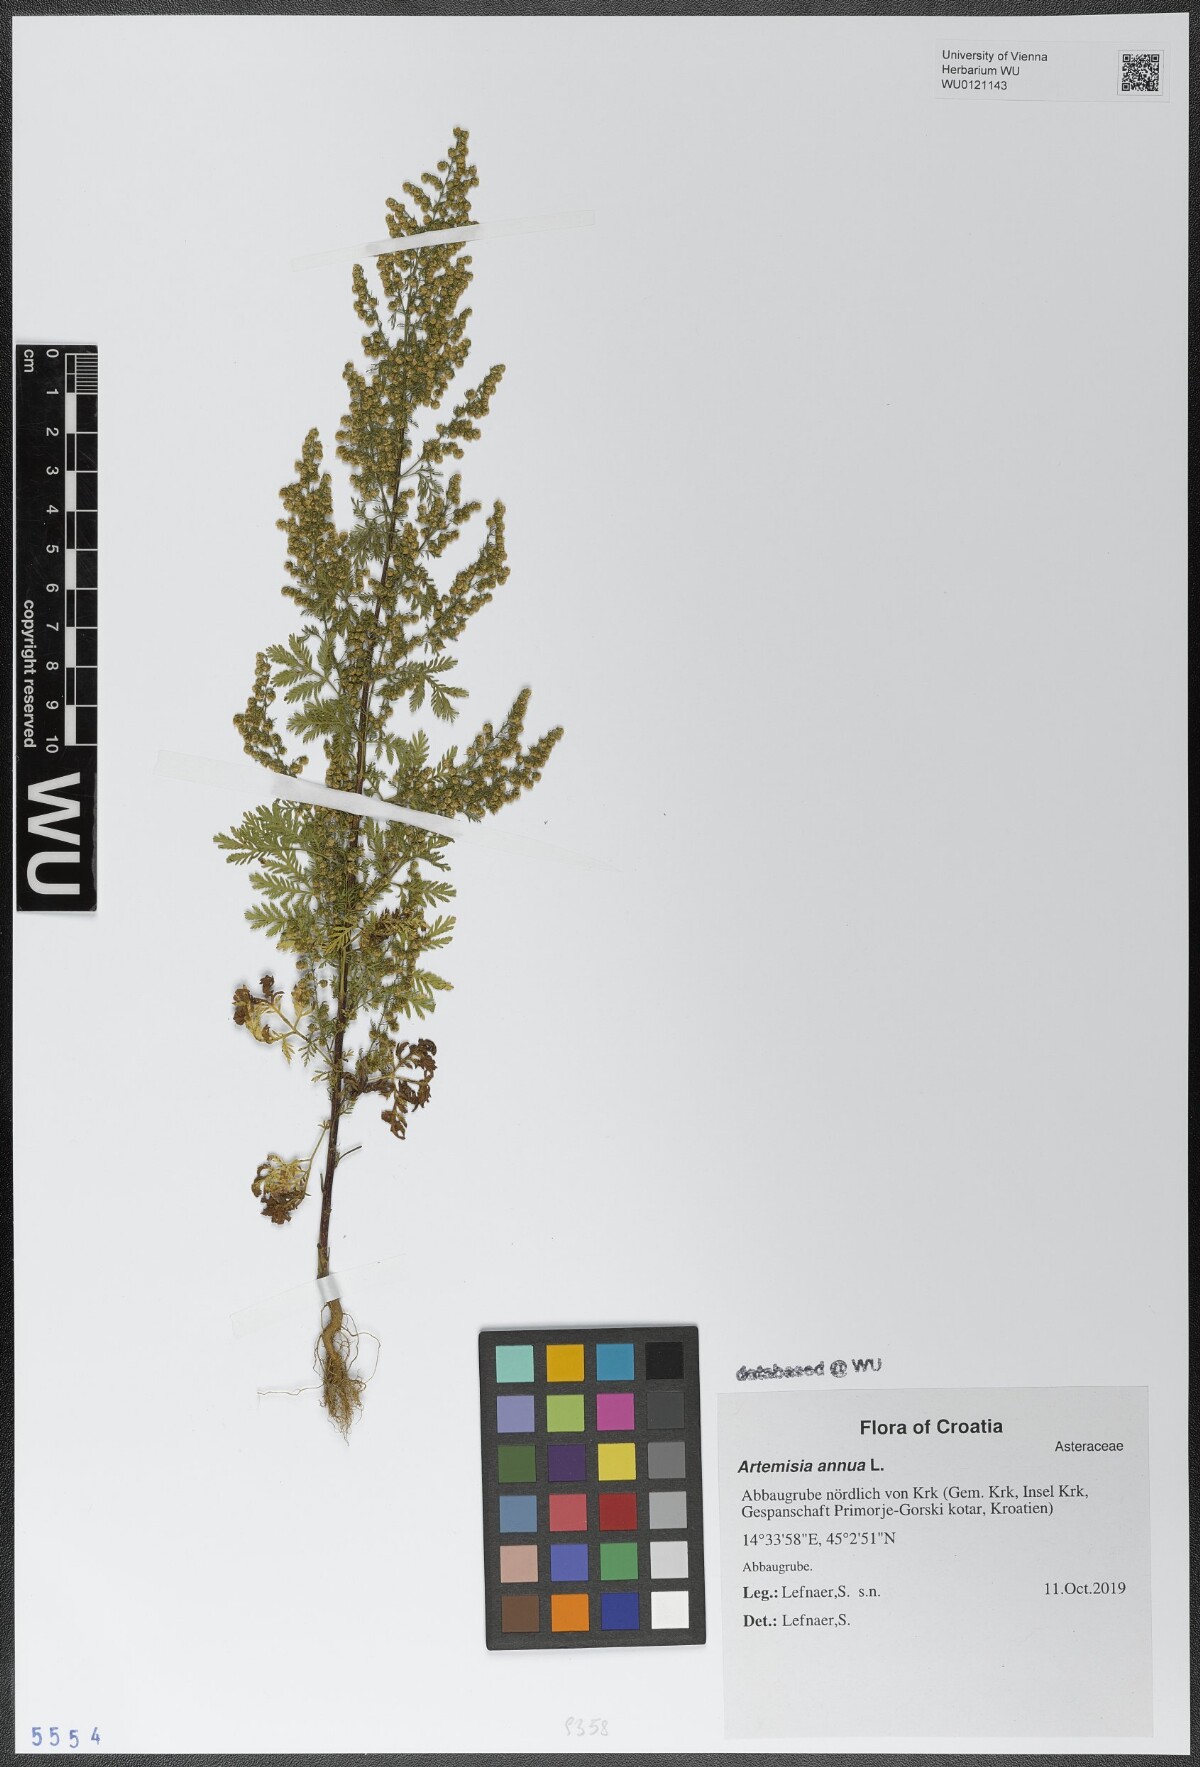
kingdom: Plantae
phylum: Tracheophyta
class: Magnoliopsida
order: Asterales
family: Asteraceae
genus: Artemisia
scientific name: Artemisia annua
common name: Sweet sagewort
